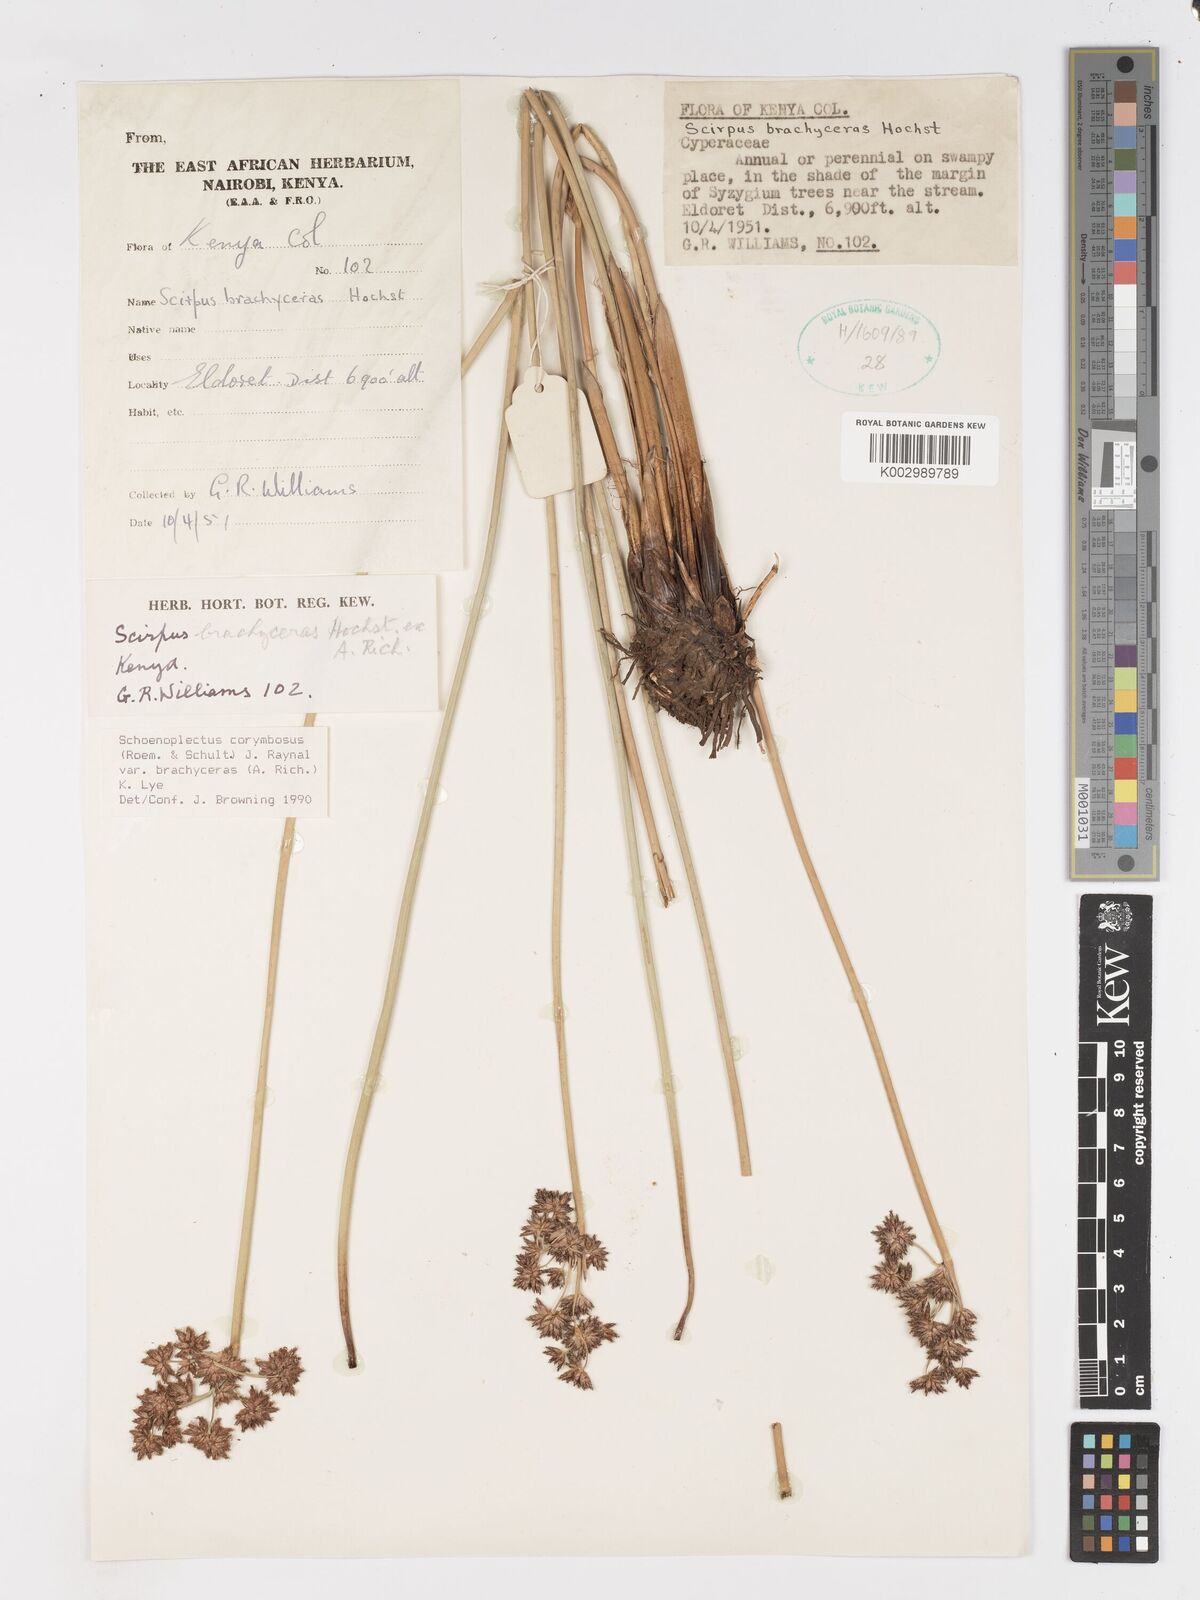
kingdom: Plantae
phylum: Tracheophyta
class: Liliopsida
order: Poales
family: Cyperaceae
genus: Schoenoplectiella
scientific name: Schoenoplectiella brachyceras
